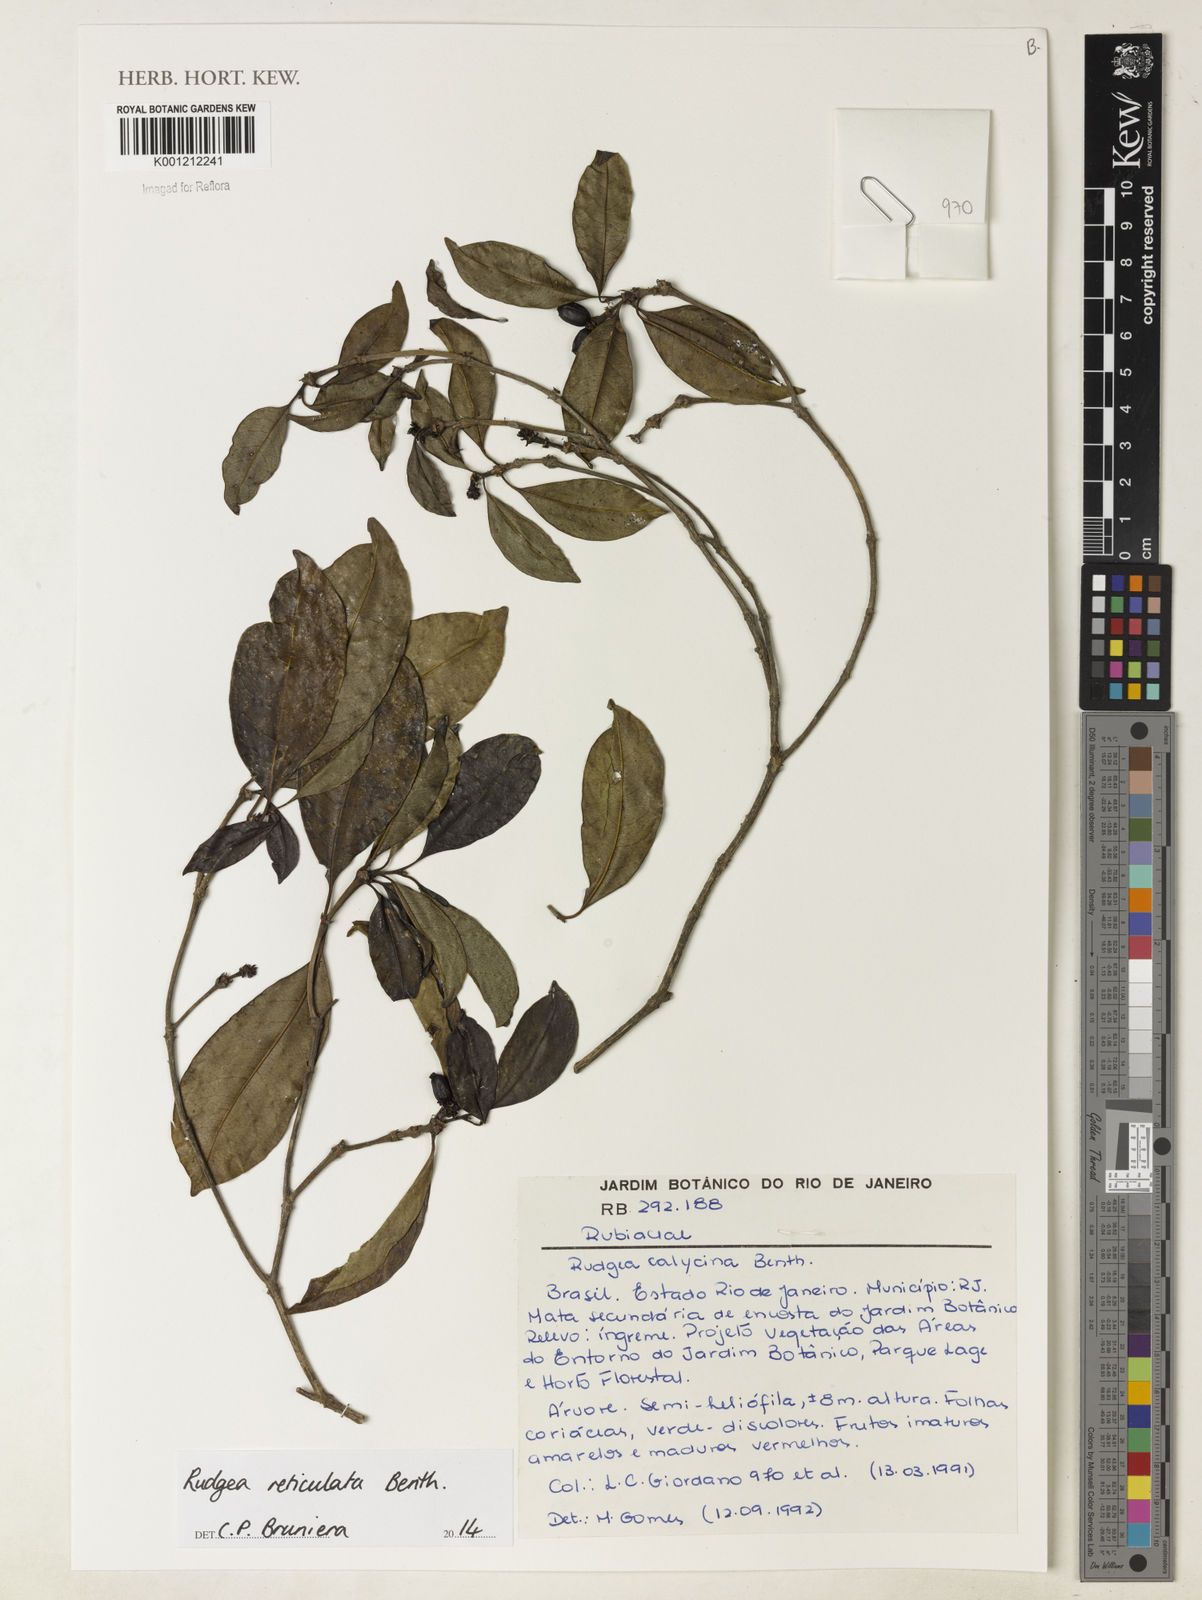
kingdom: Plantae
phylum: Tracheophyta
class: Magnoliopsida
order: Gentianales
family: Rubiaceae
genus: Rudgea
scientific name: Rudgea reticulata
